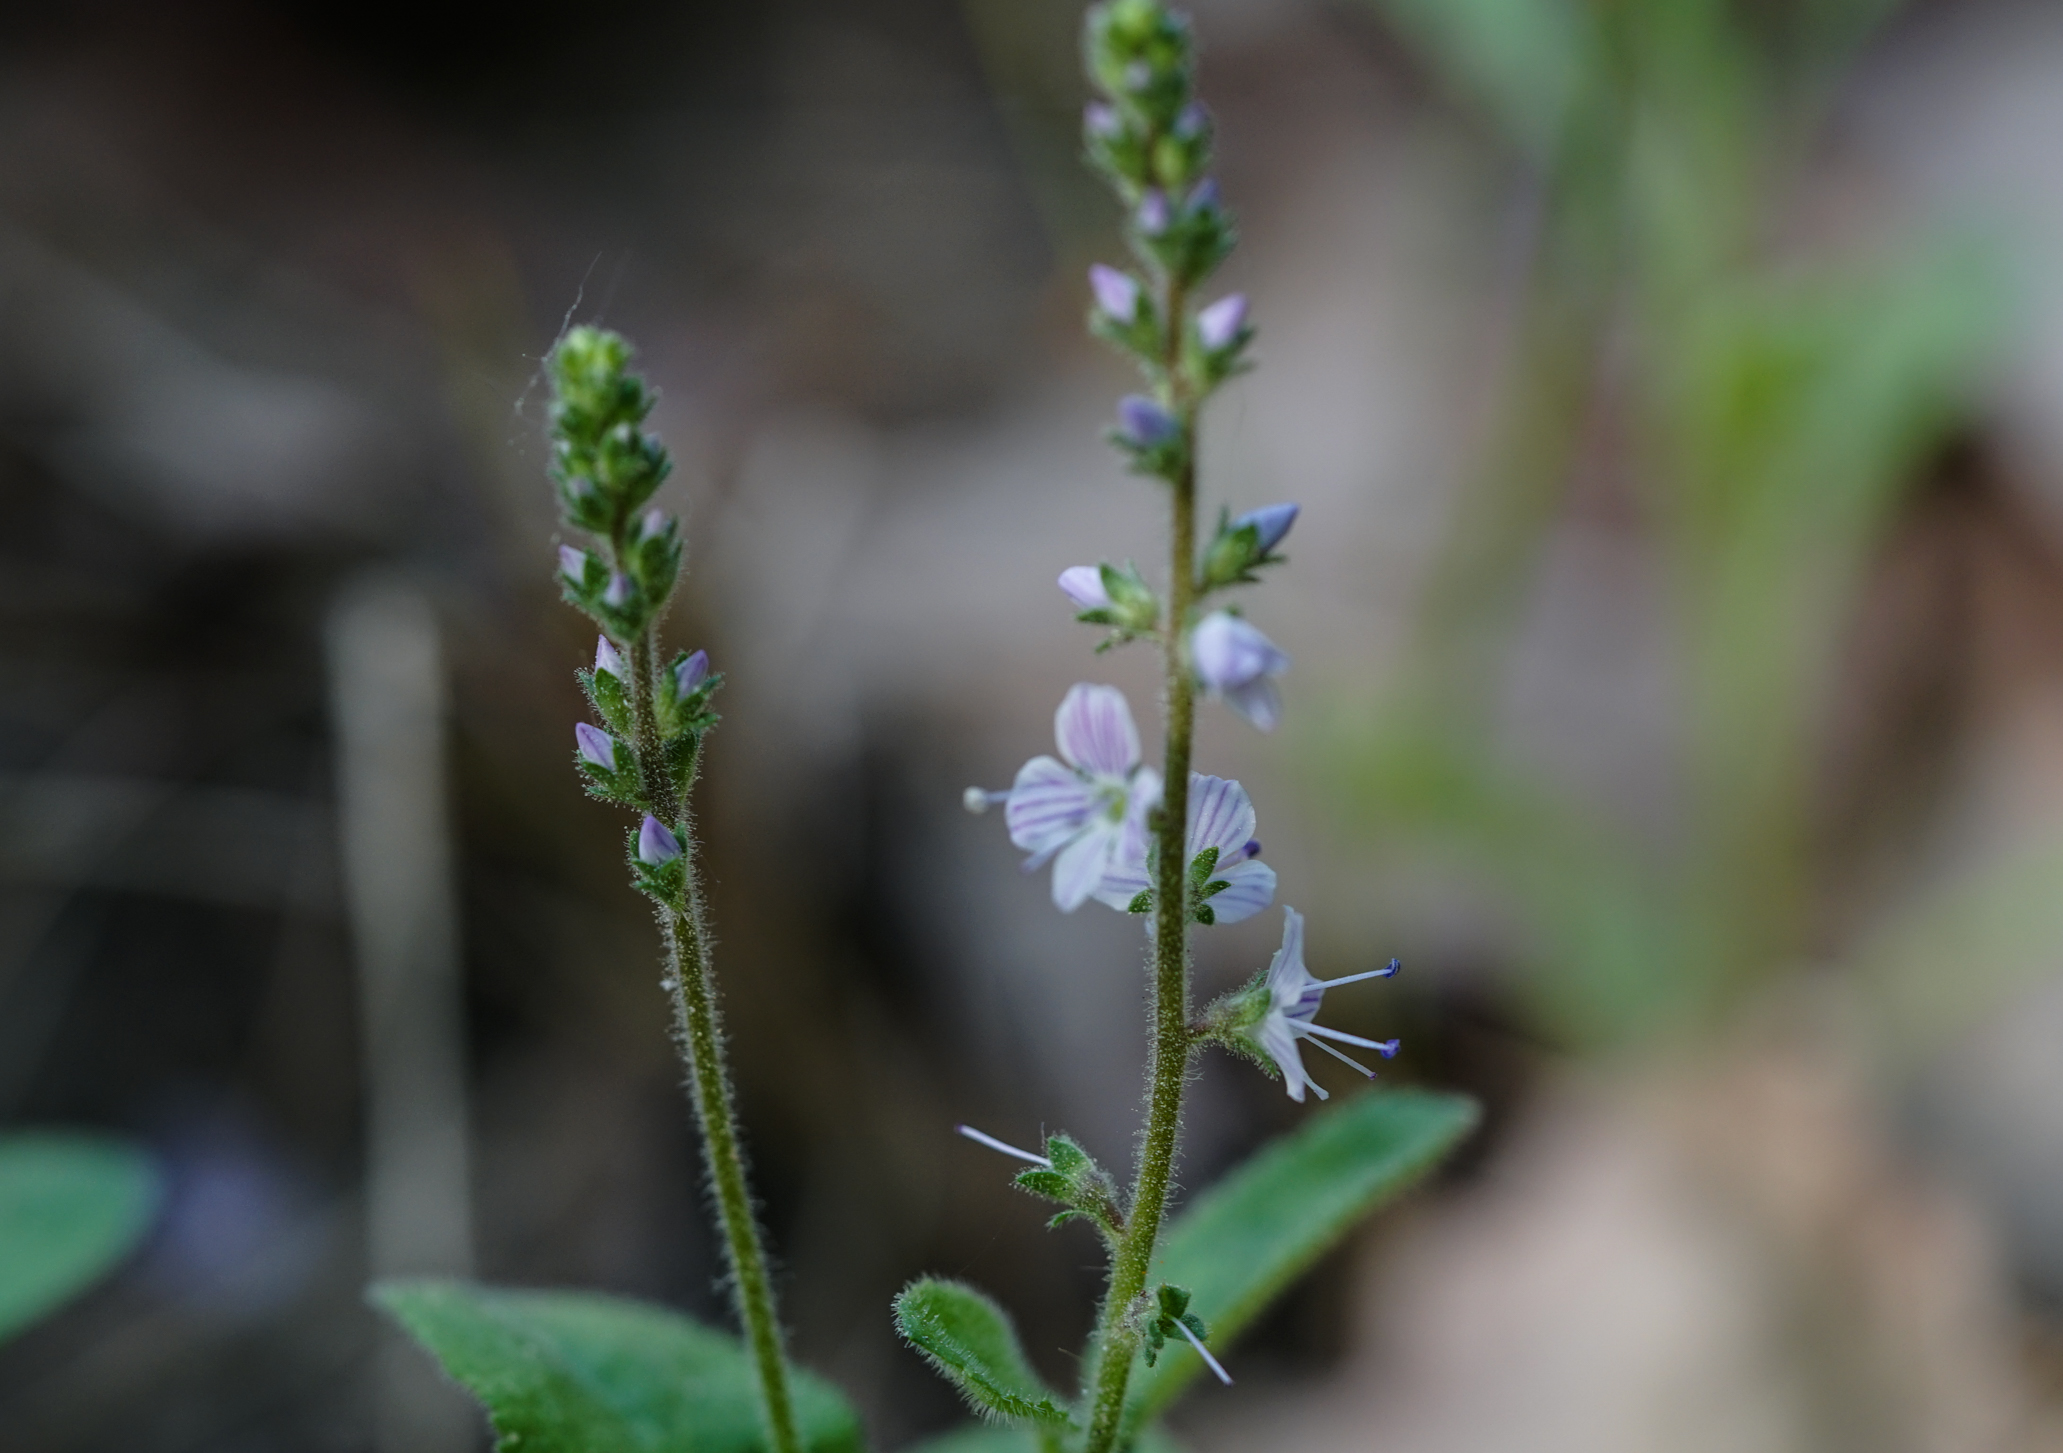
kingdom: Plantae
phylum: Tracheophyta
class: Magnoliopsida
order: Lamiales
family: Plantaginaceae
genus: Veronica
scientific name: Veronica officinalis
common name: Common speedwell
